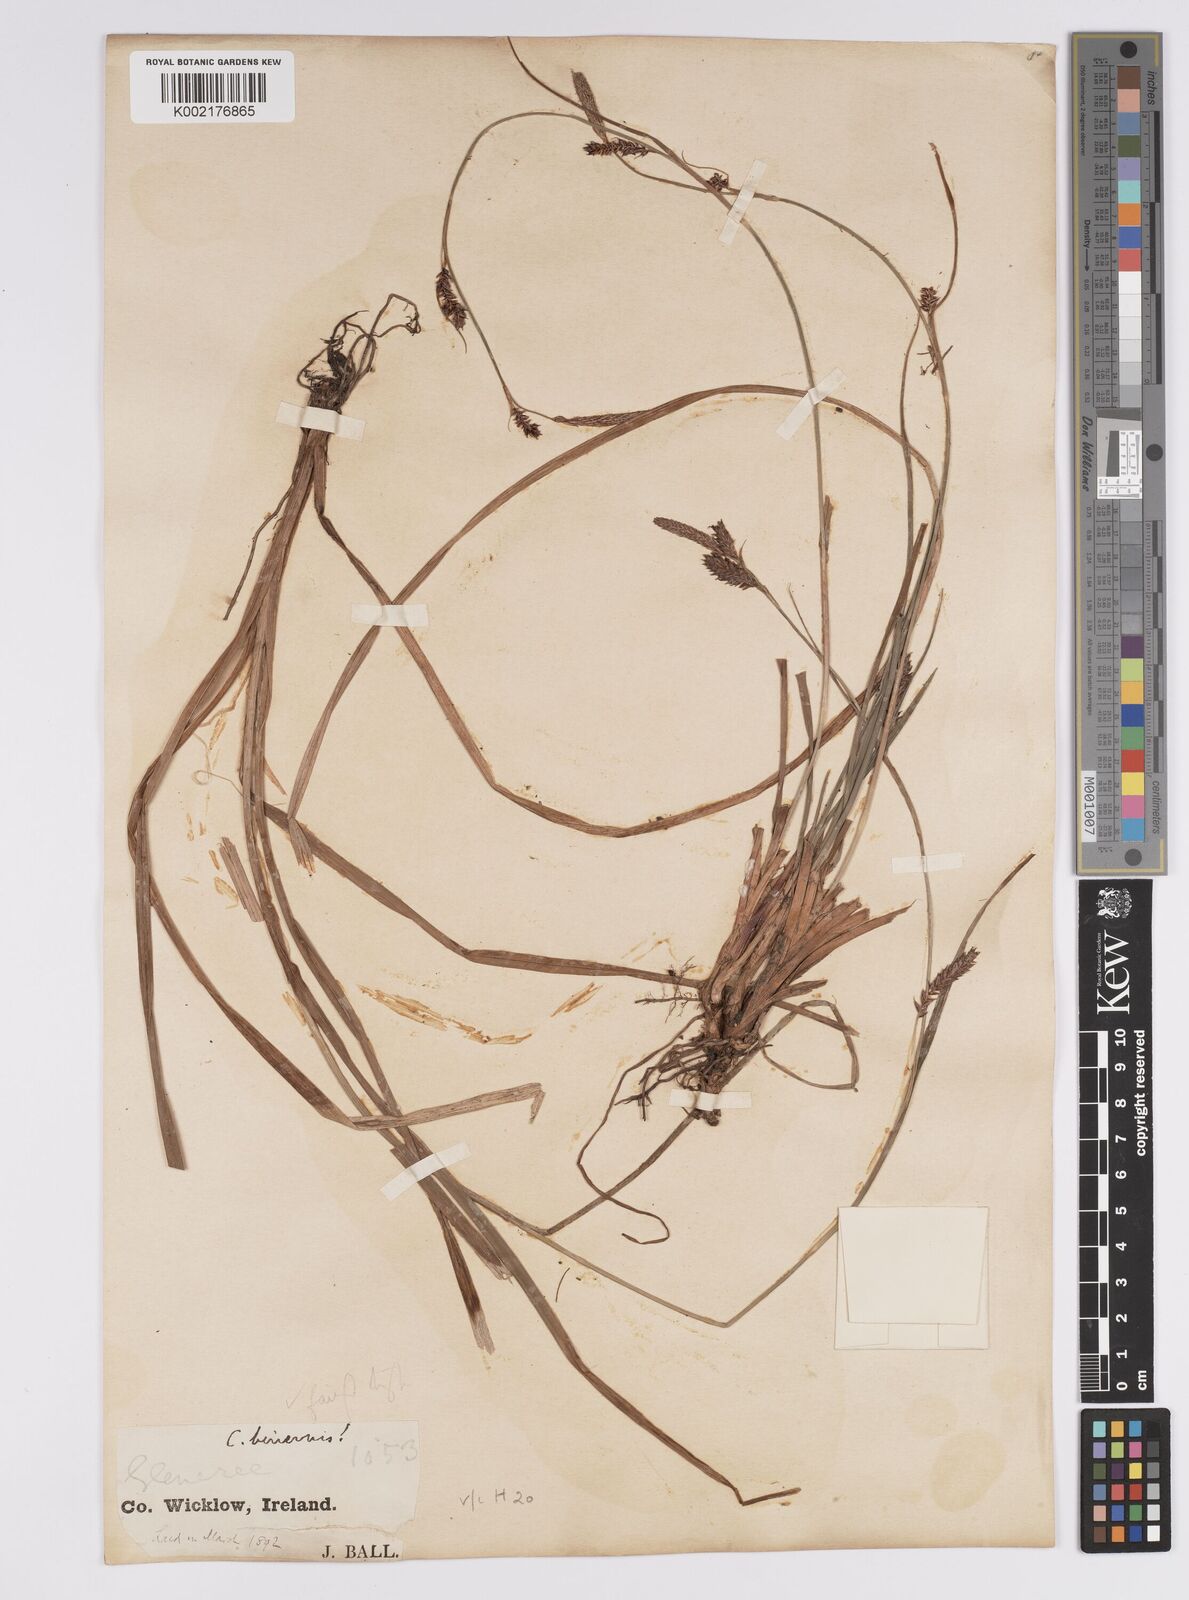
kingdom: Plantae
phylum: Tracheophyta
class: Liliopsida
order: Poales
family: Cyperaceae
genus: Carex
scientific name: Carex binervis
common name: Green-ribbed sedge
